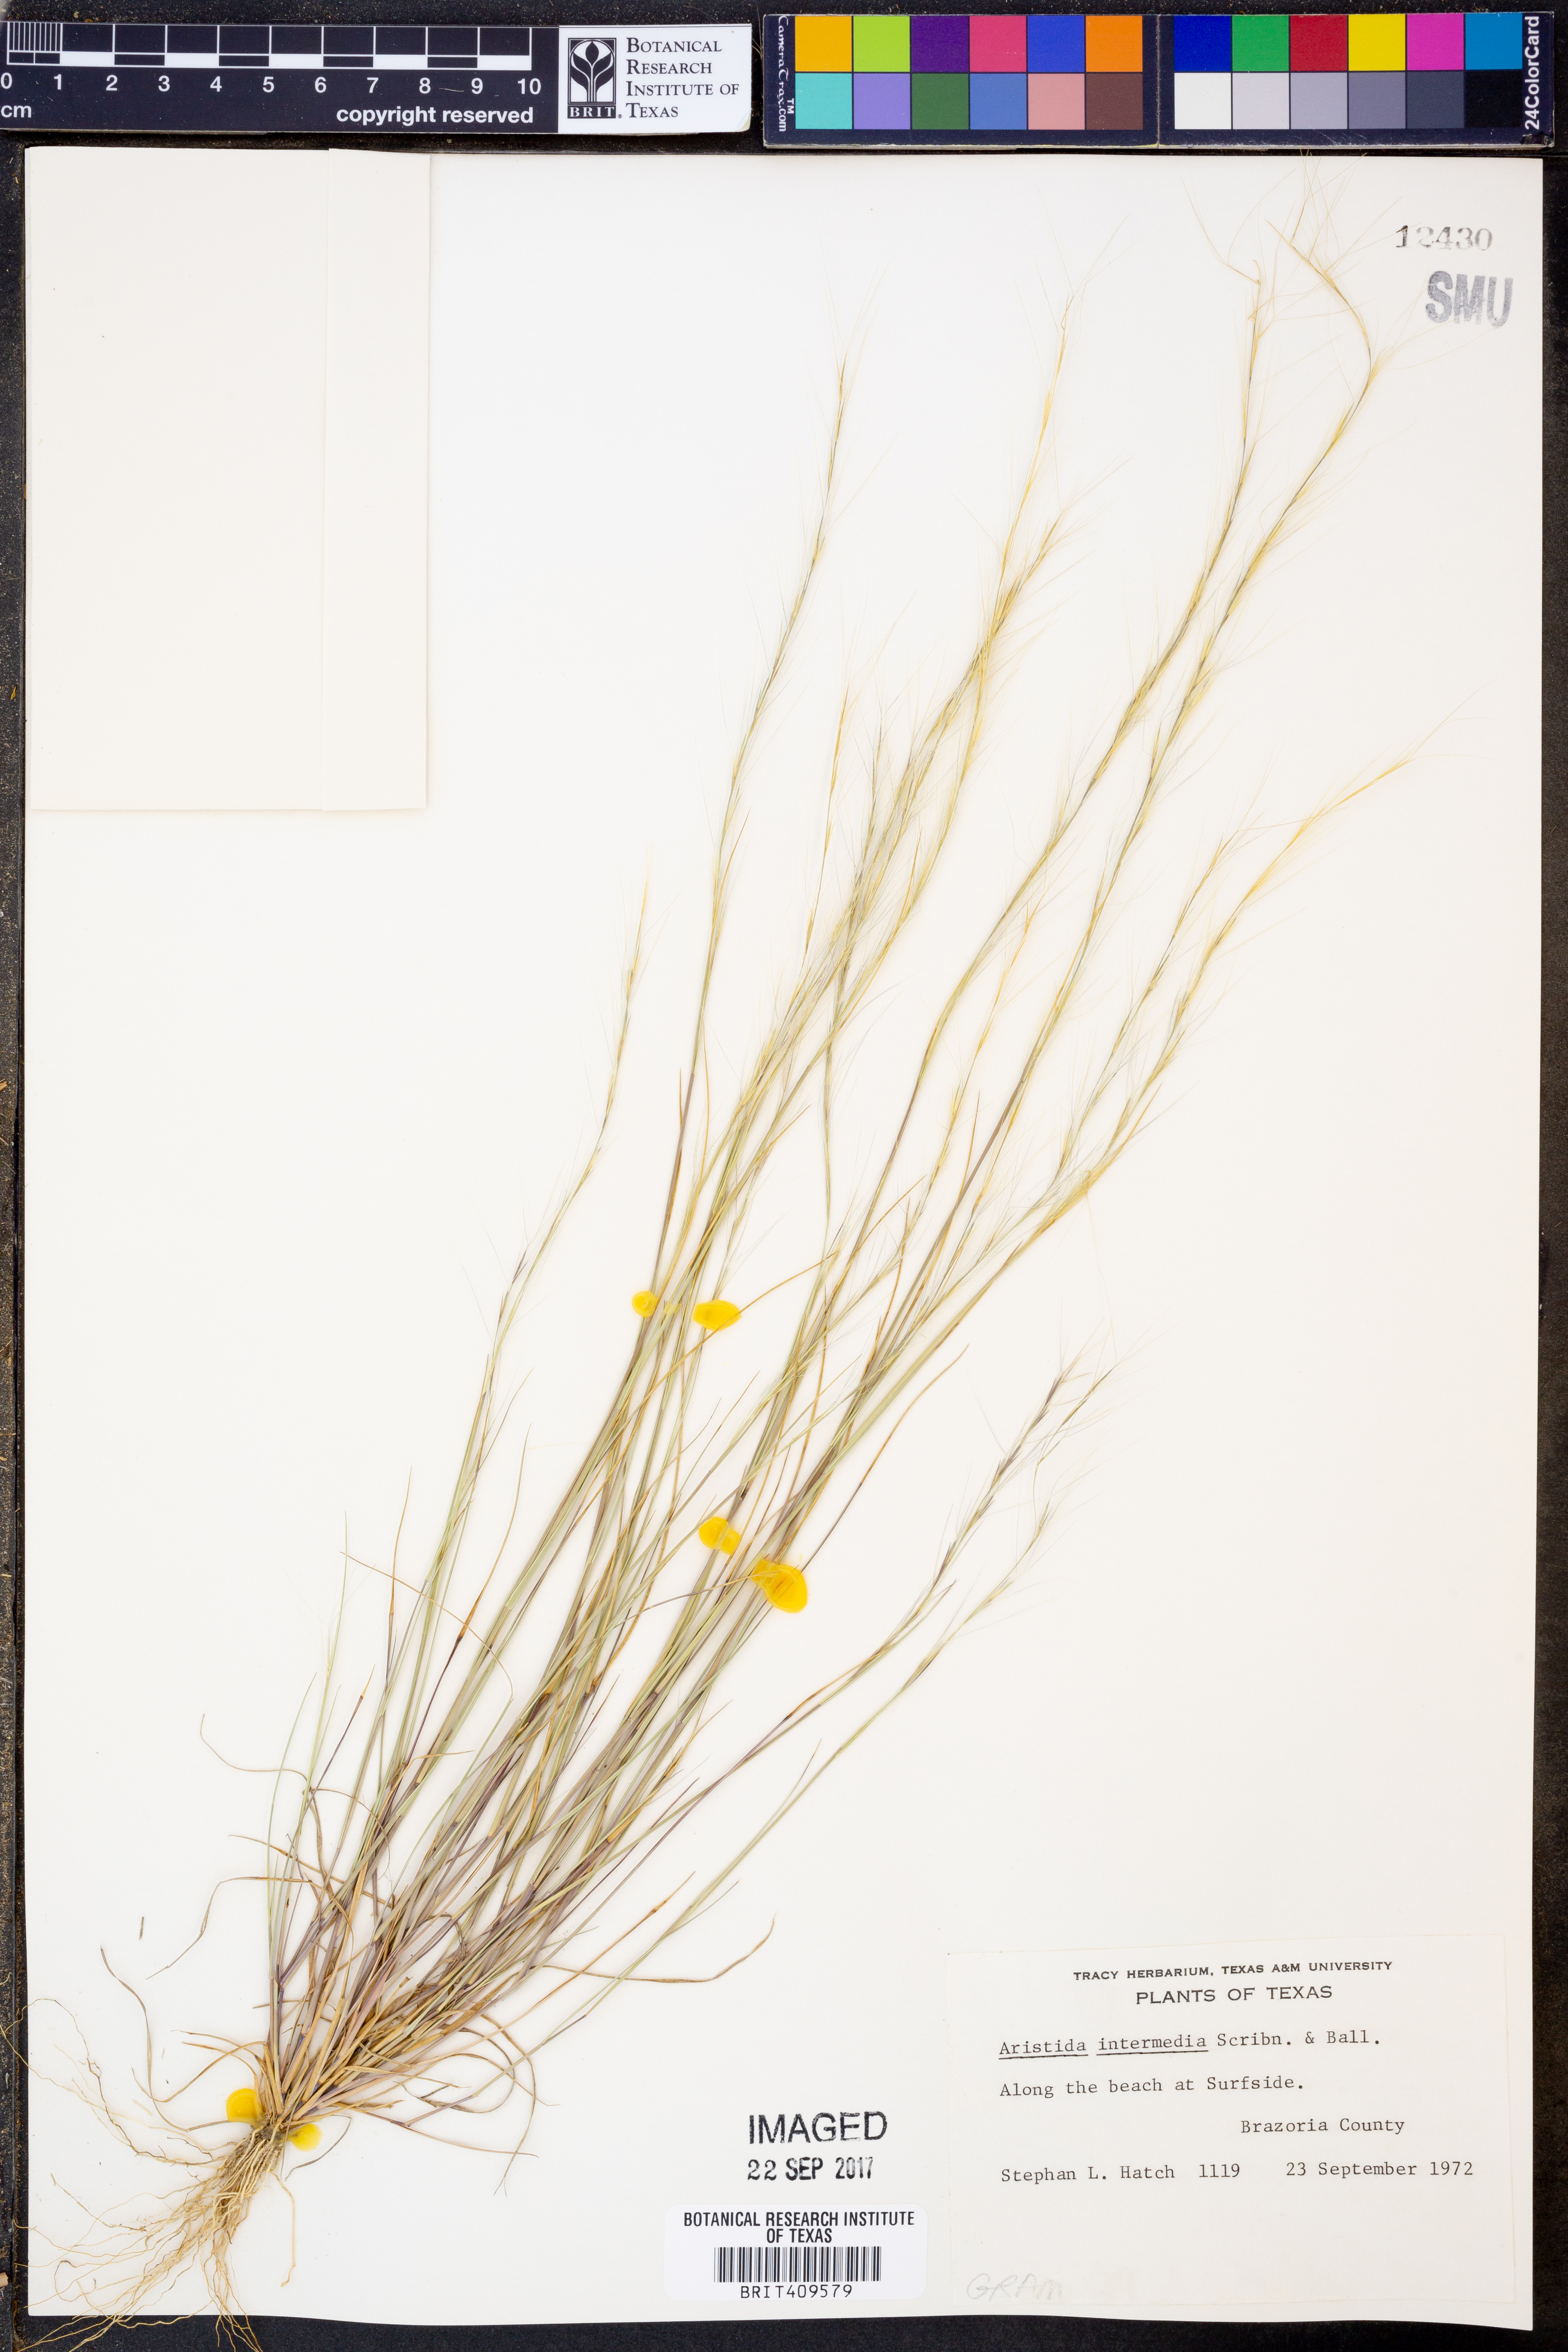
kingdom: Plantae
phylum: Tracheophyta
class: Liliopsida
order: Poales
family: Poaceae
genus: Aristida
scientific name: Aristida longespica
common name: Long-spiked triple-awned grass
